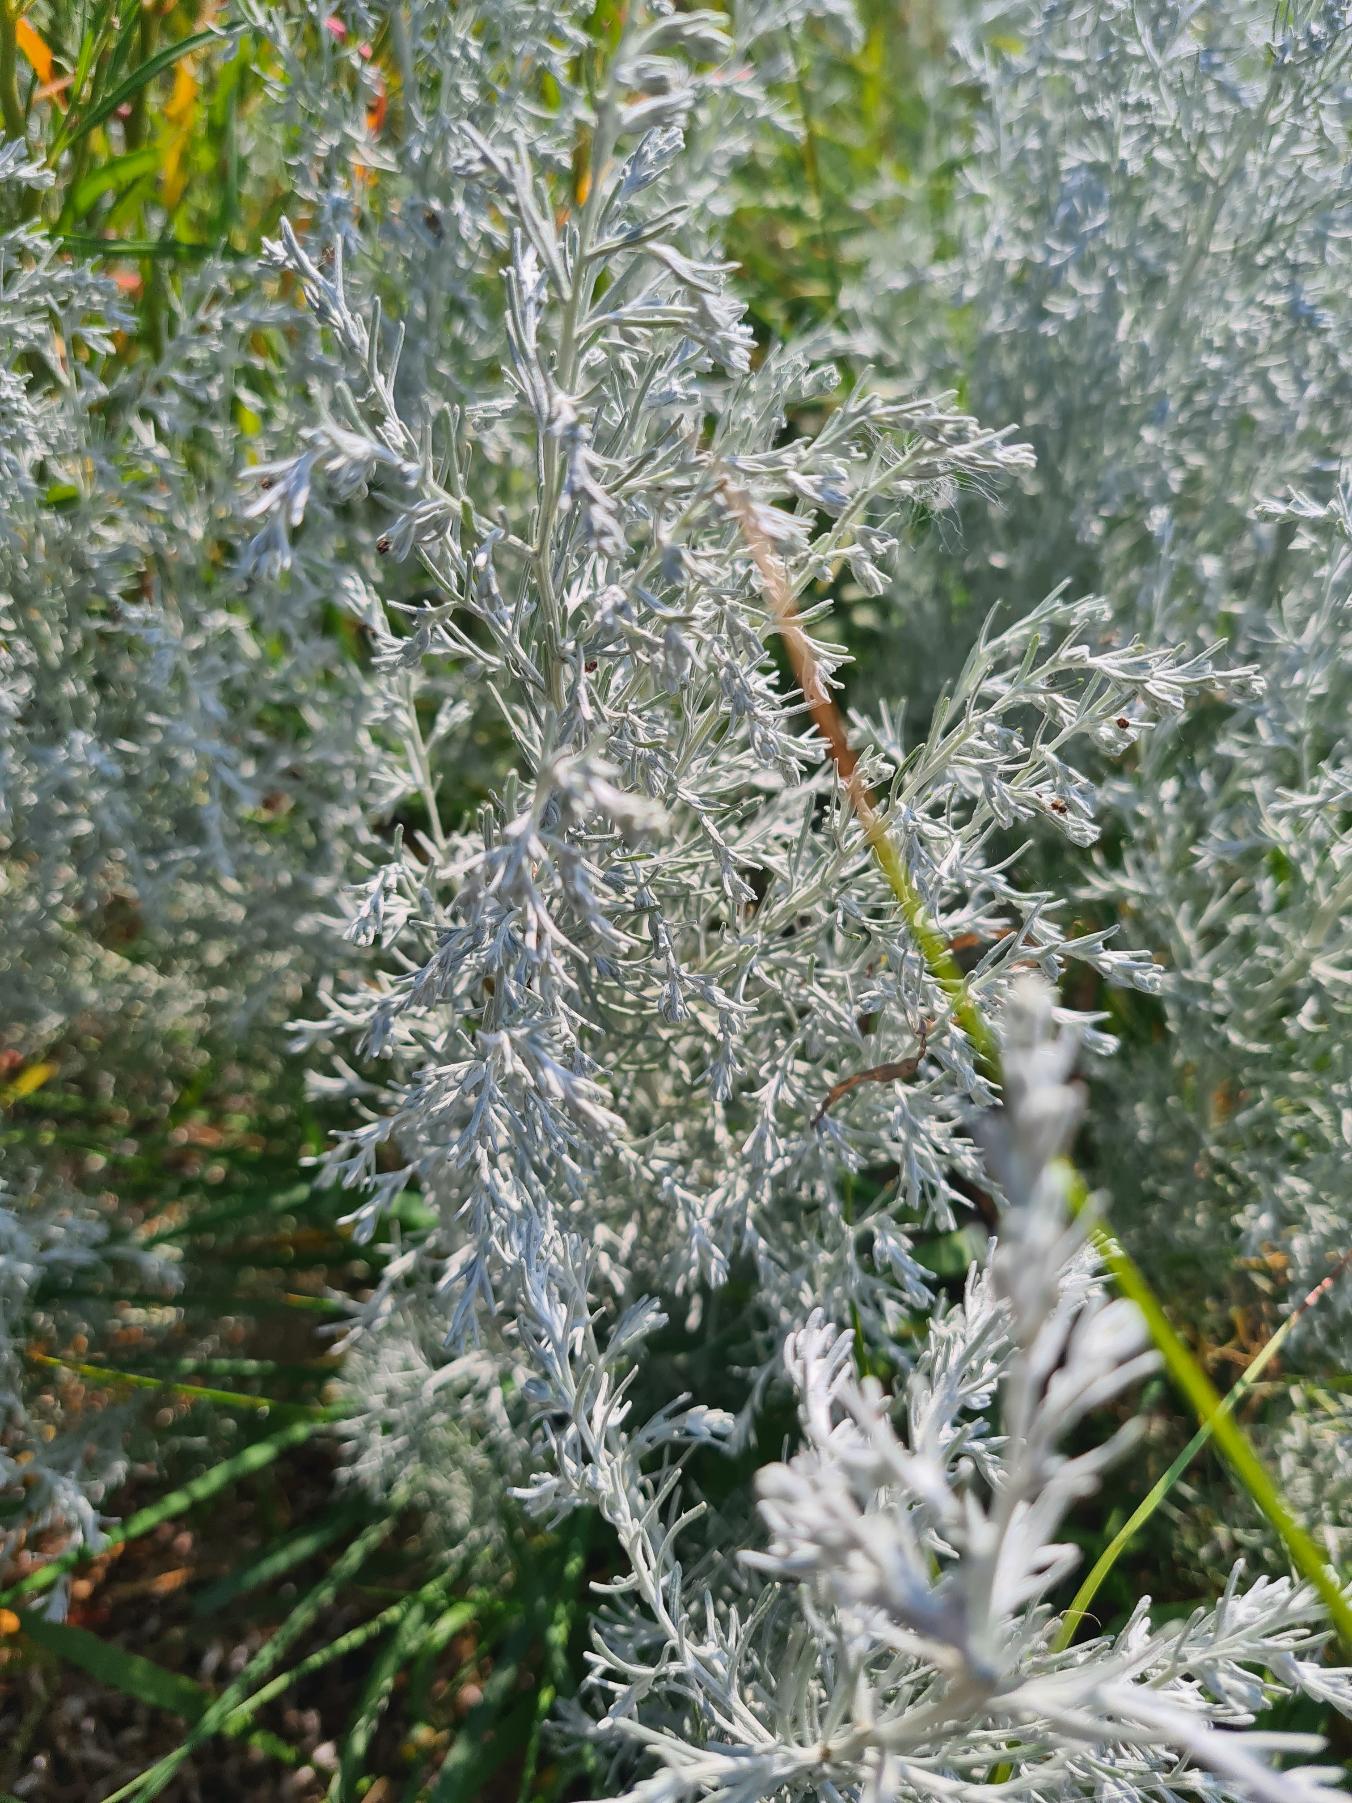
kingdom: Plantae
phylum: Tracheophyta
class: Magnoliopsida
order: Asterales
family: Asteraceae
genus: Artemisia
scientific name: Artemisia maritima
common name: Strandmalurt
